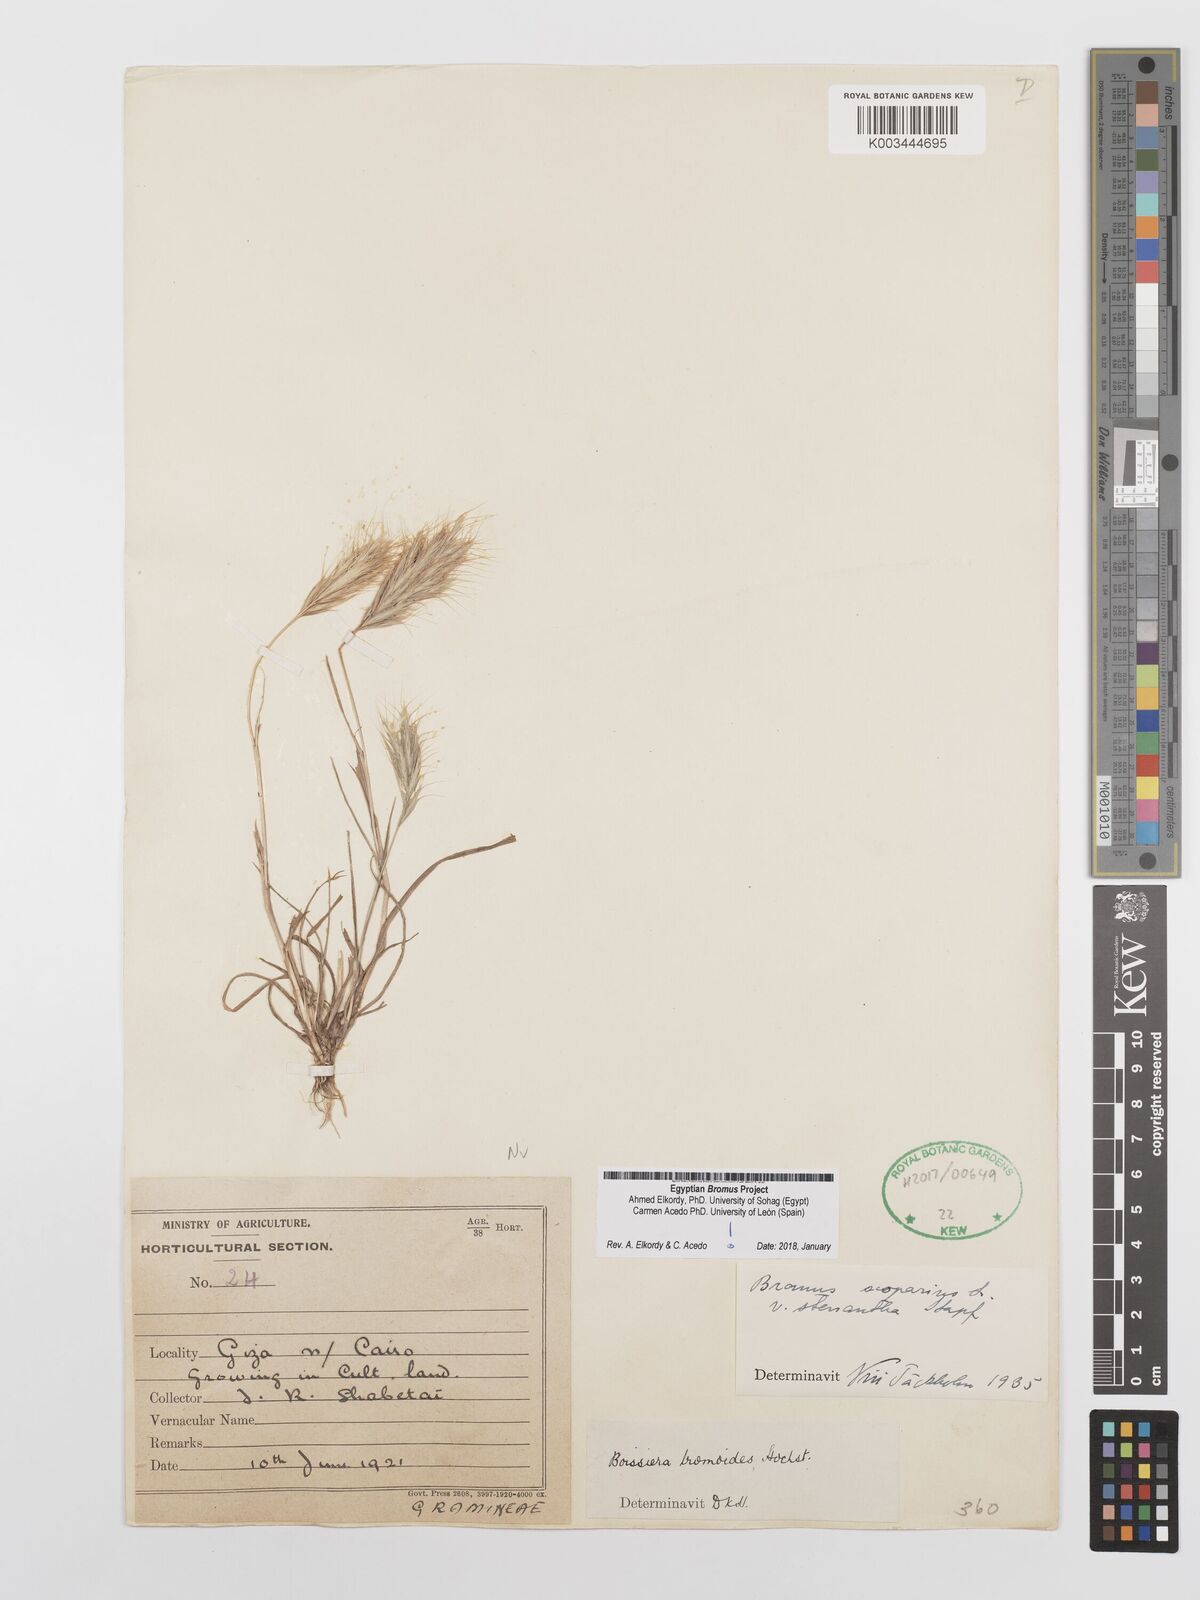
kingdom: Plantae
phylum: Tracheophyta
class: Liliopsida
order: Poales
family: Poaceae
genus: Bromus
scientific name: Bromus scoparius
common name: Broom brome
